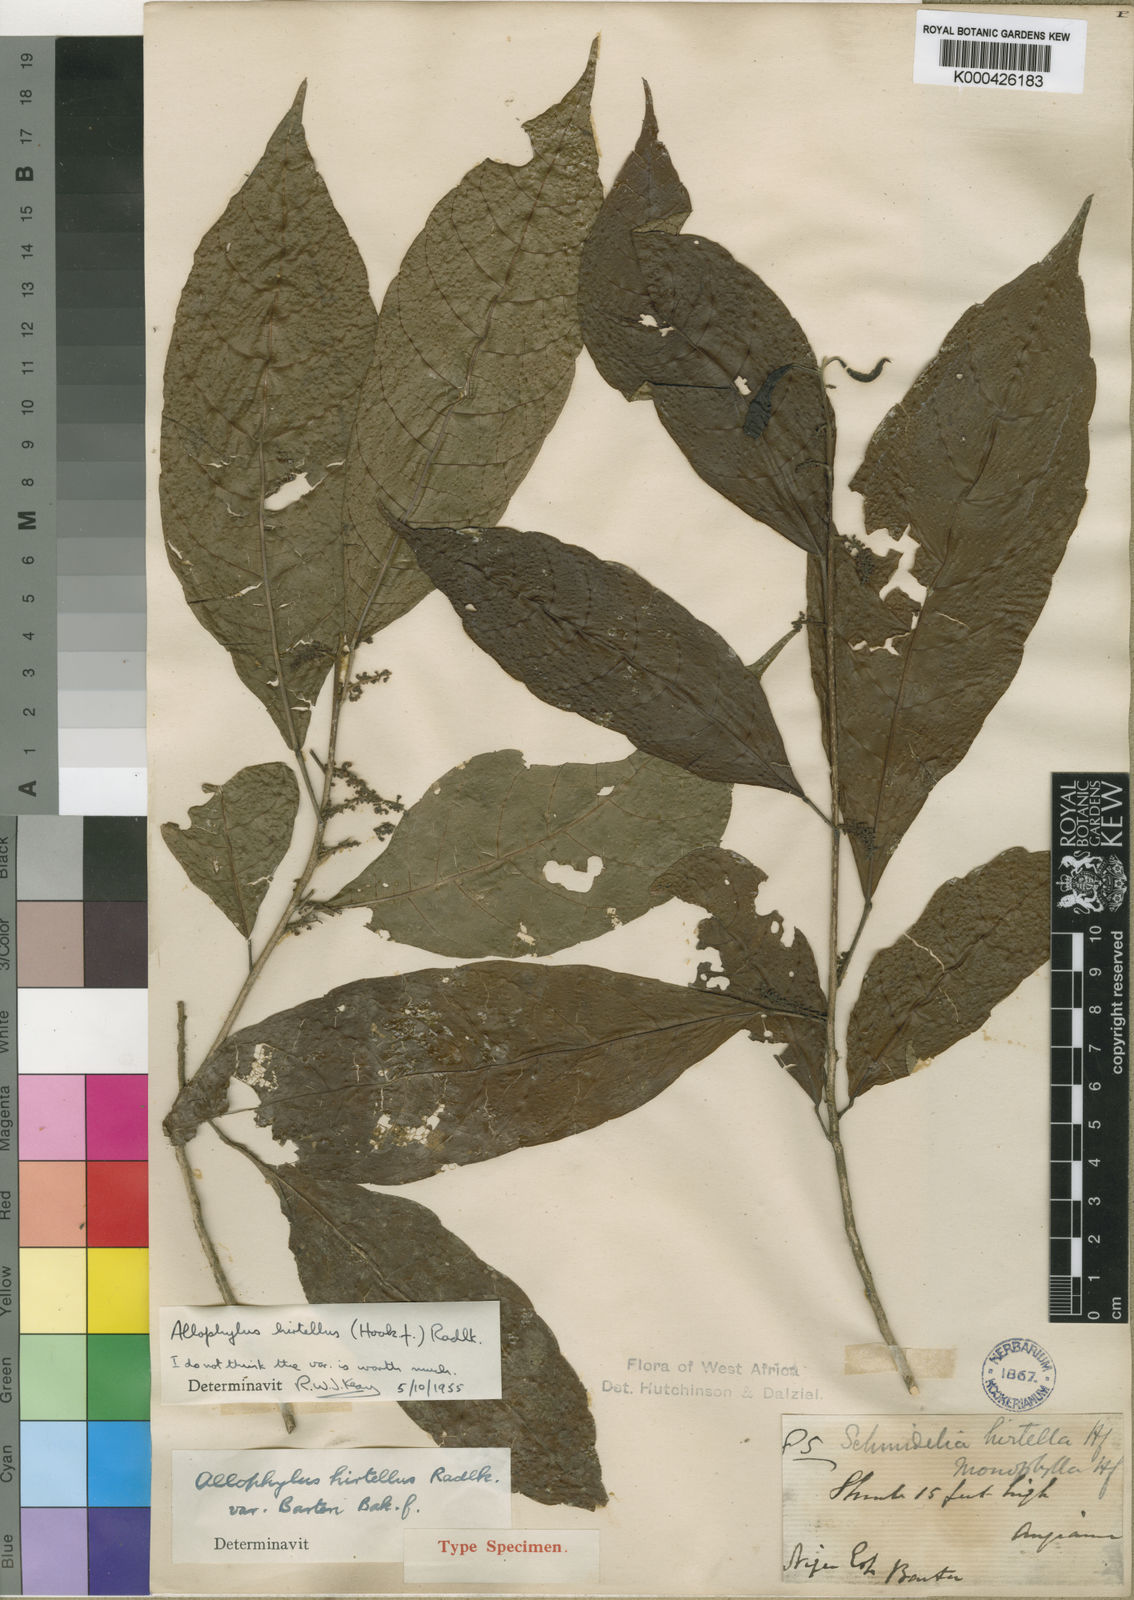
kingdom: Plantae
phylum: Tracheophyta
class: Magnoliopsida
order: Sapindales
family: Sapindaceae
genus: Allophylus
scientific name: Allophylus hirtellus
